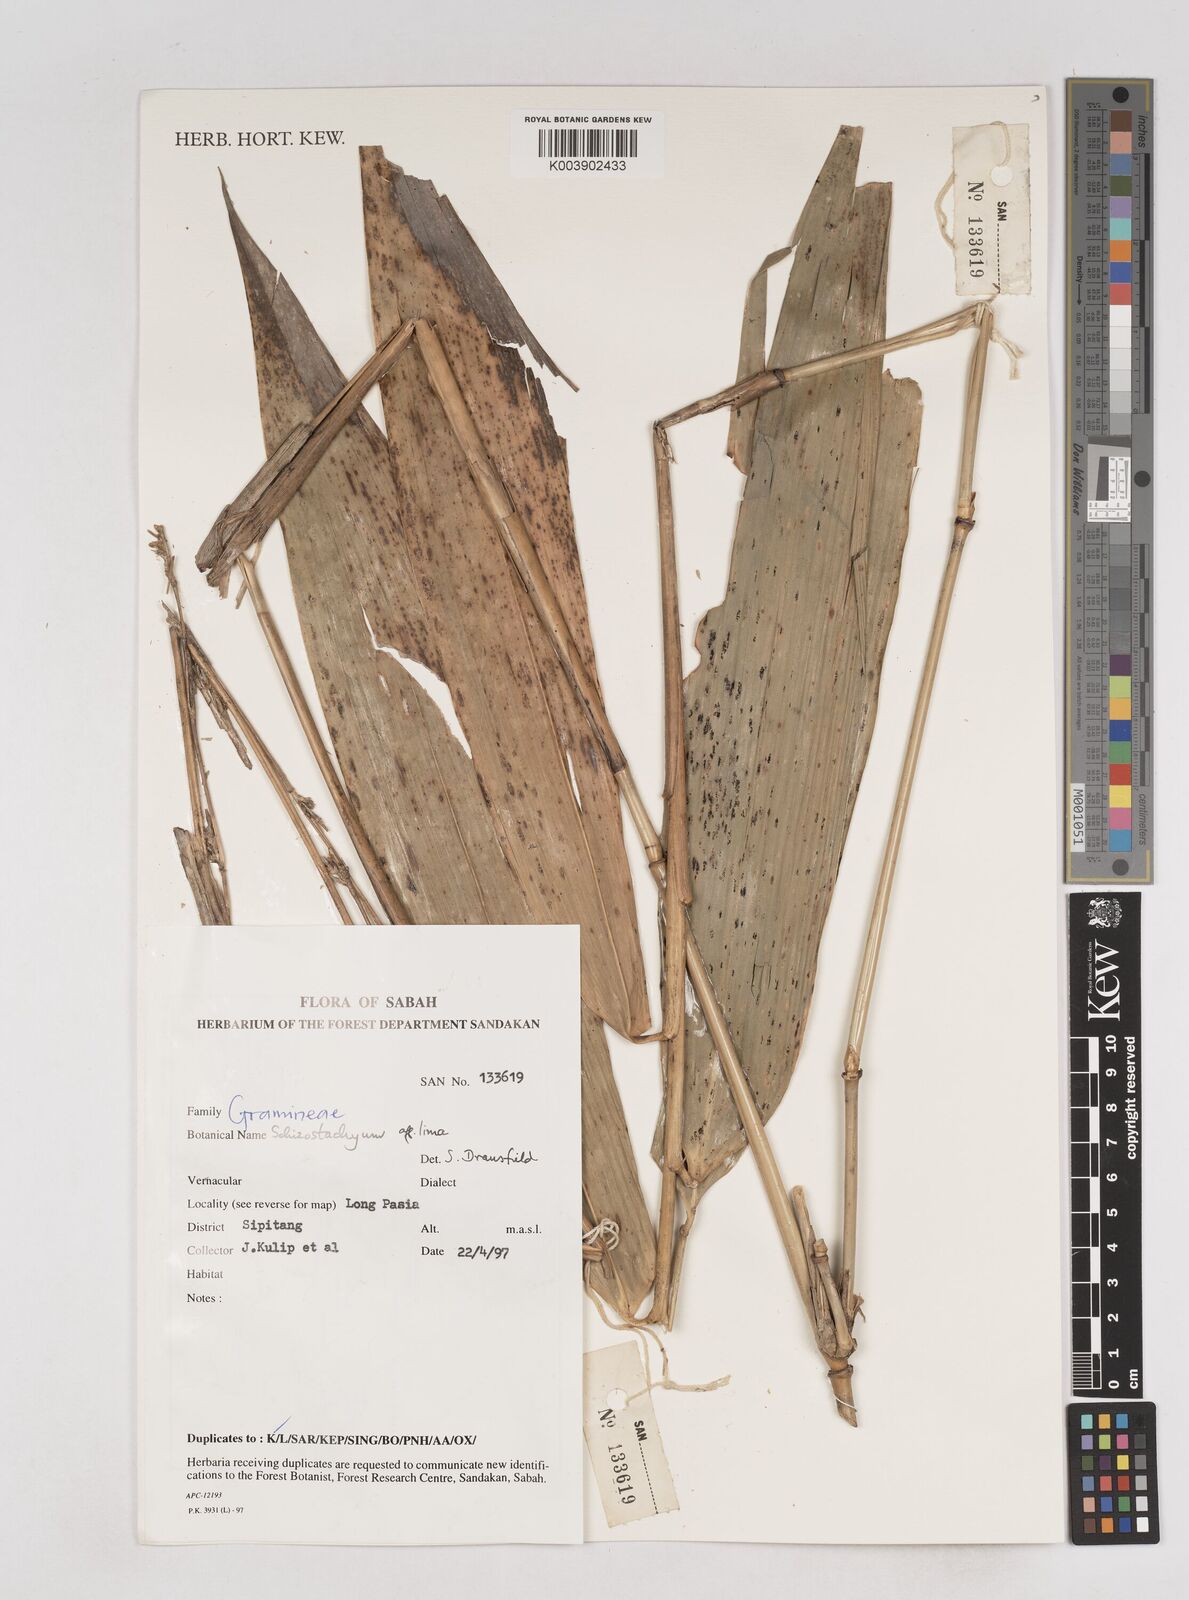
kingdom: Plantae
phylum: Tracheophyta
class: Liliopsida
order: Poales
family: Poaceae
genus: Schizostachyum
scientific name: Schizostachyum
